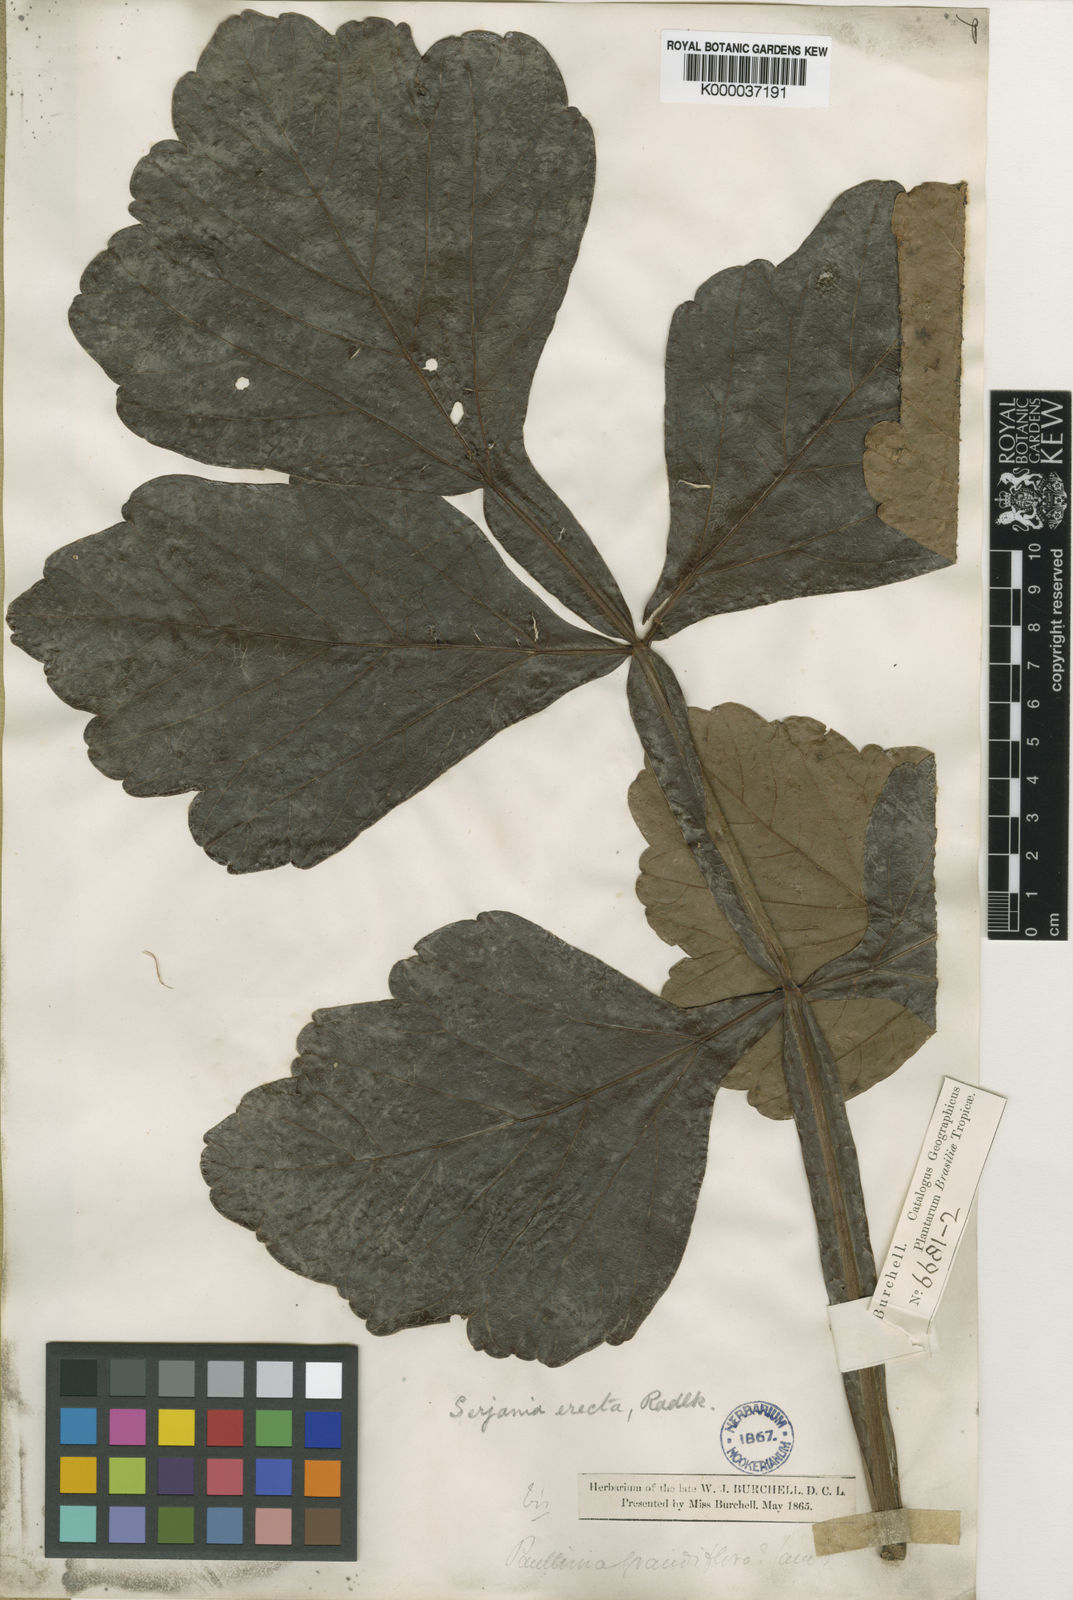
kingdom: Plantae
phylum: Tracheophyta
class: Magnoliopsida
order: Sapindales
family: Sapindaceae
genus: Serjania
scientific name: Serjania erecta
